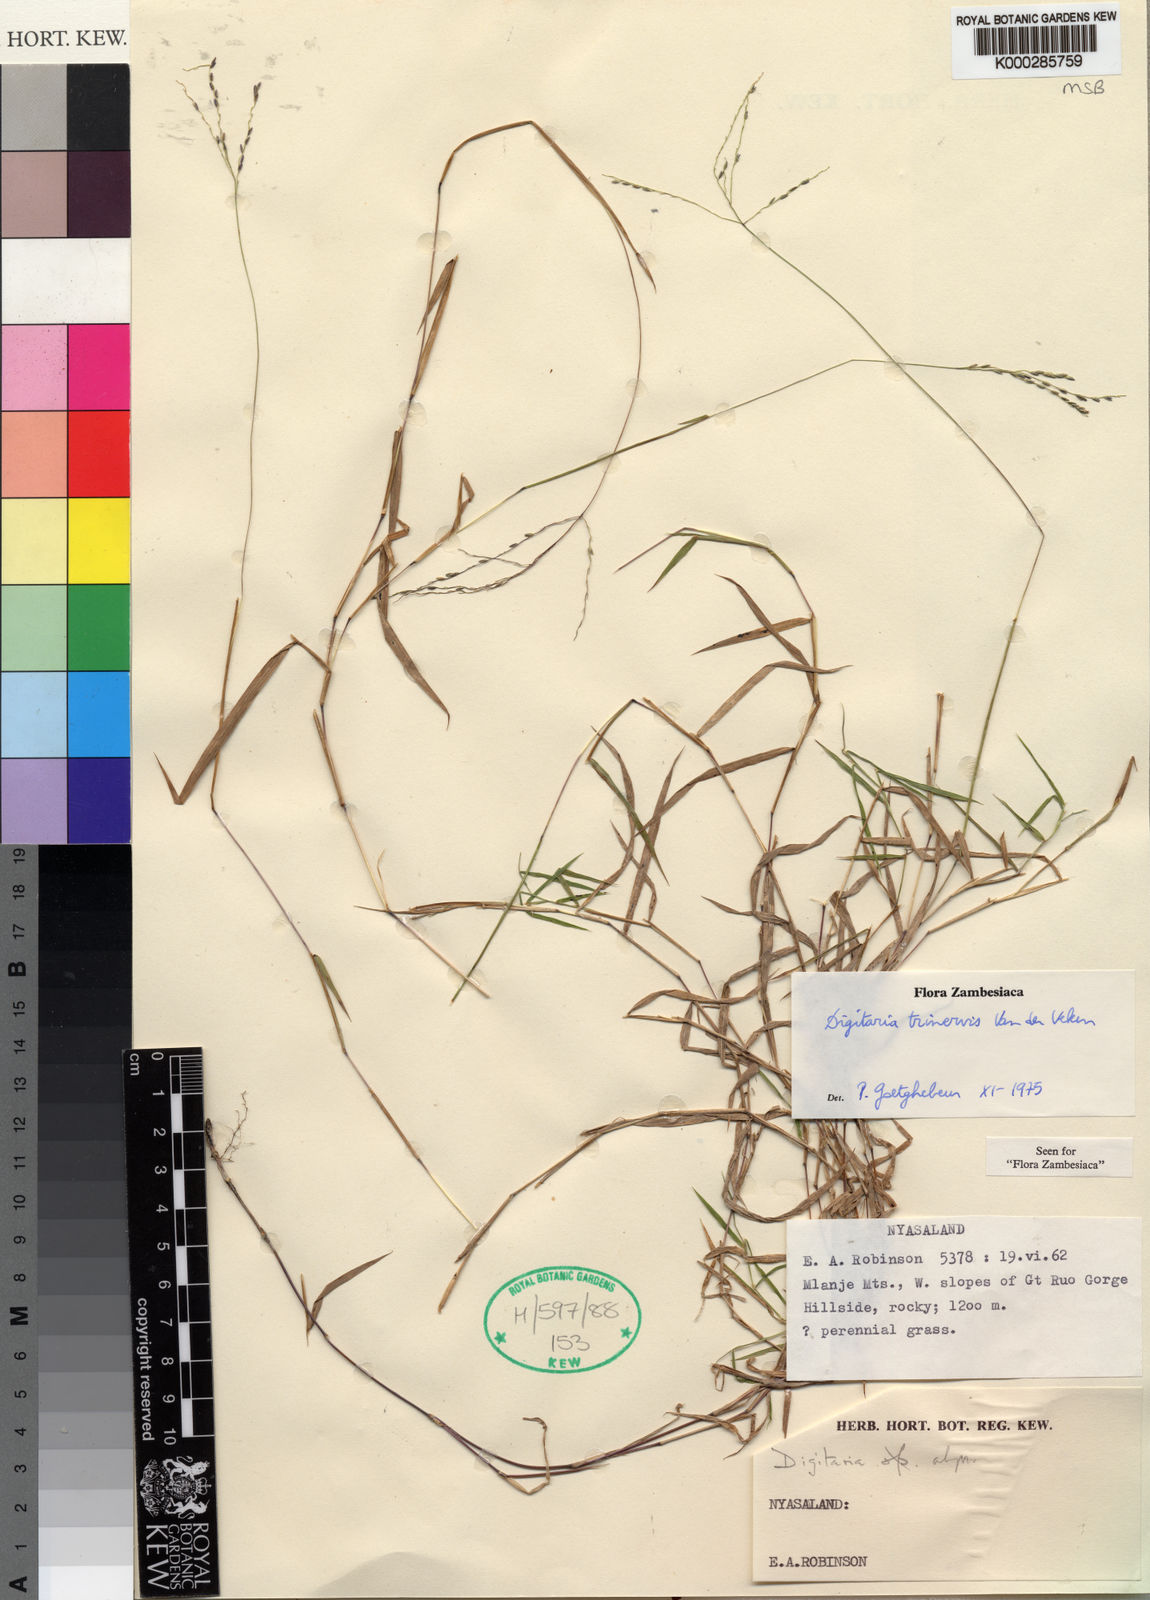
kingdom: Plantae
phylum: Tracheophyta
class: Liliopsida
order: Poales
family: Poaceae
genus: Digitaria
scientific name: Digitaria trinervis
